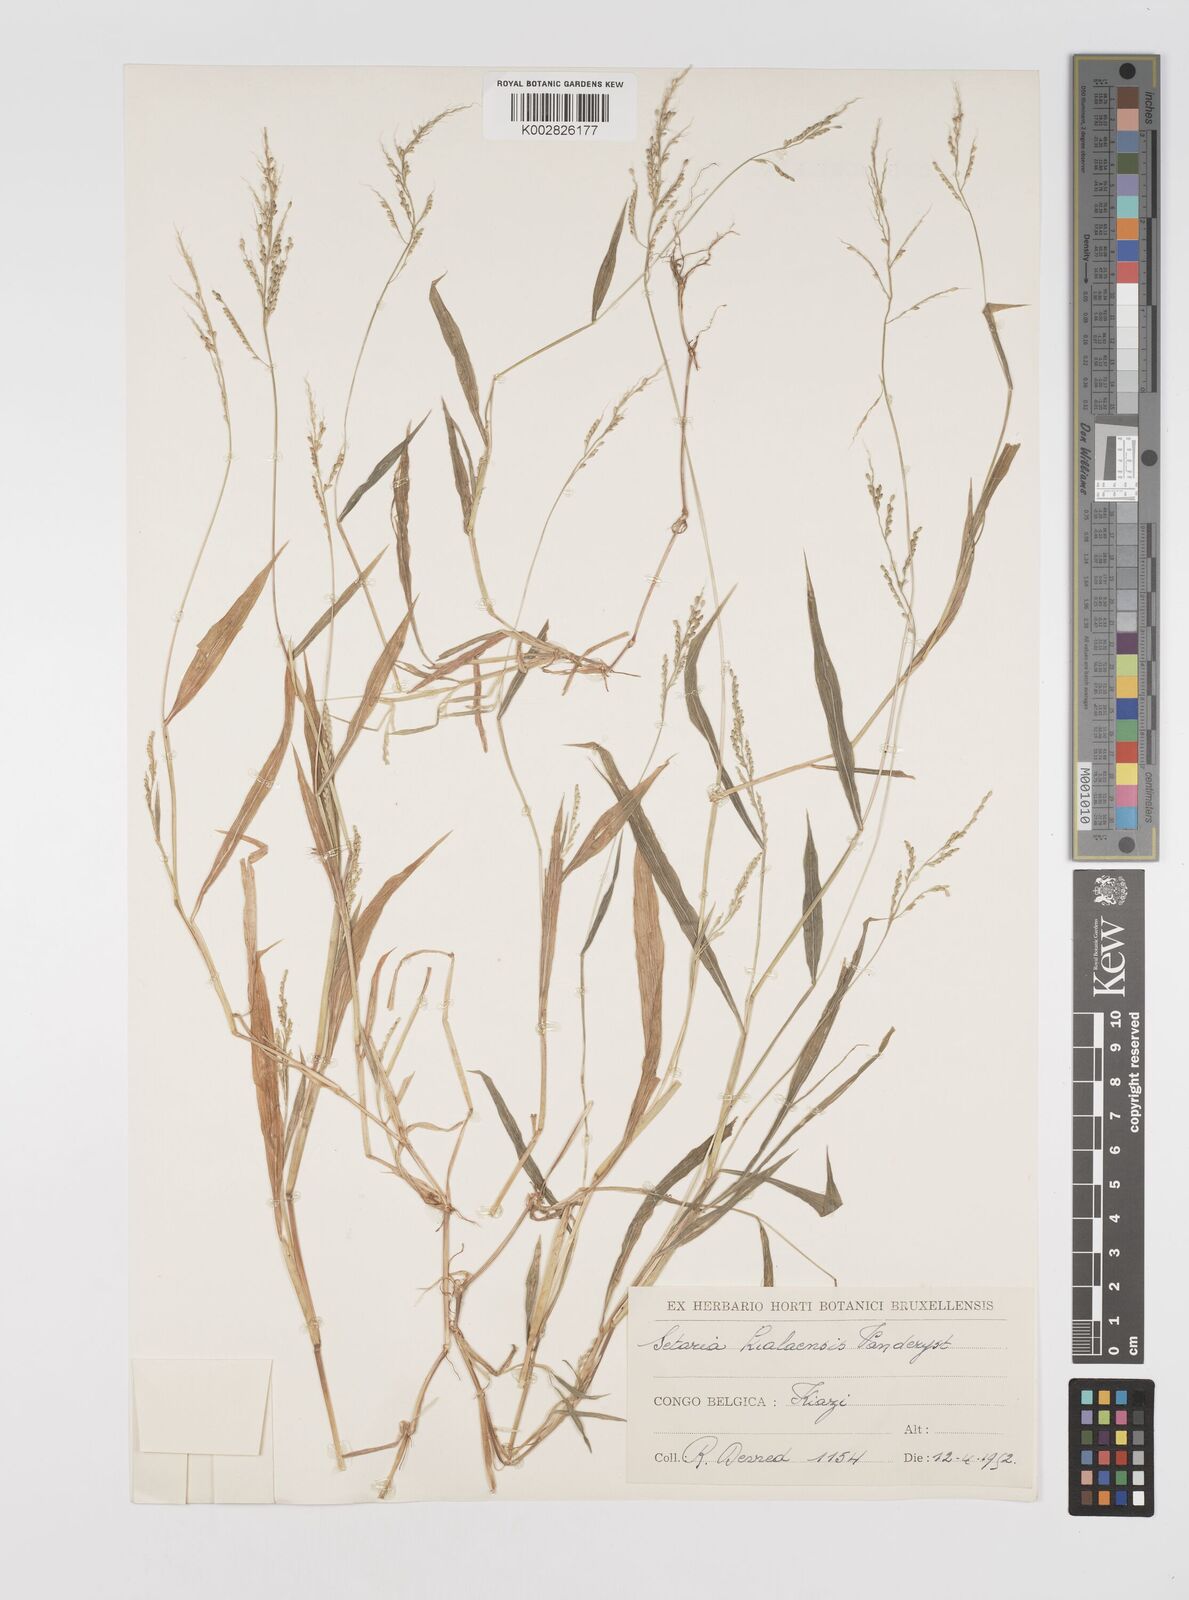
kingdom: Plantae
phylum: Tracheophyta
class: Liliopsida
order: Poales
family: Poaceae
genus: Setaria
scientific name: Setaria homonyma
